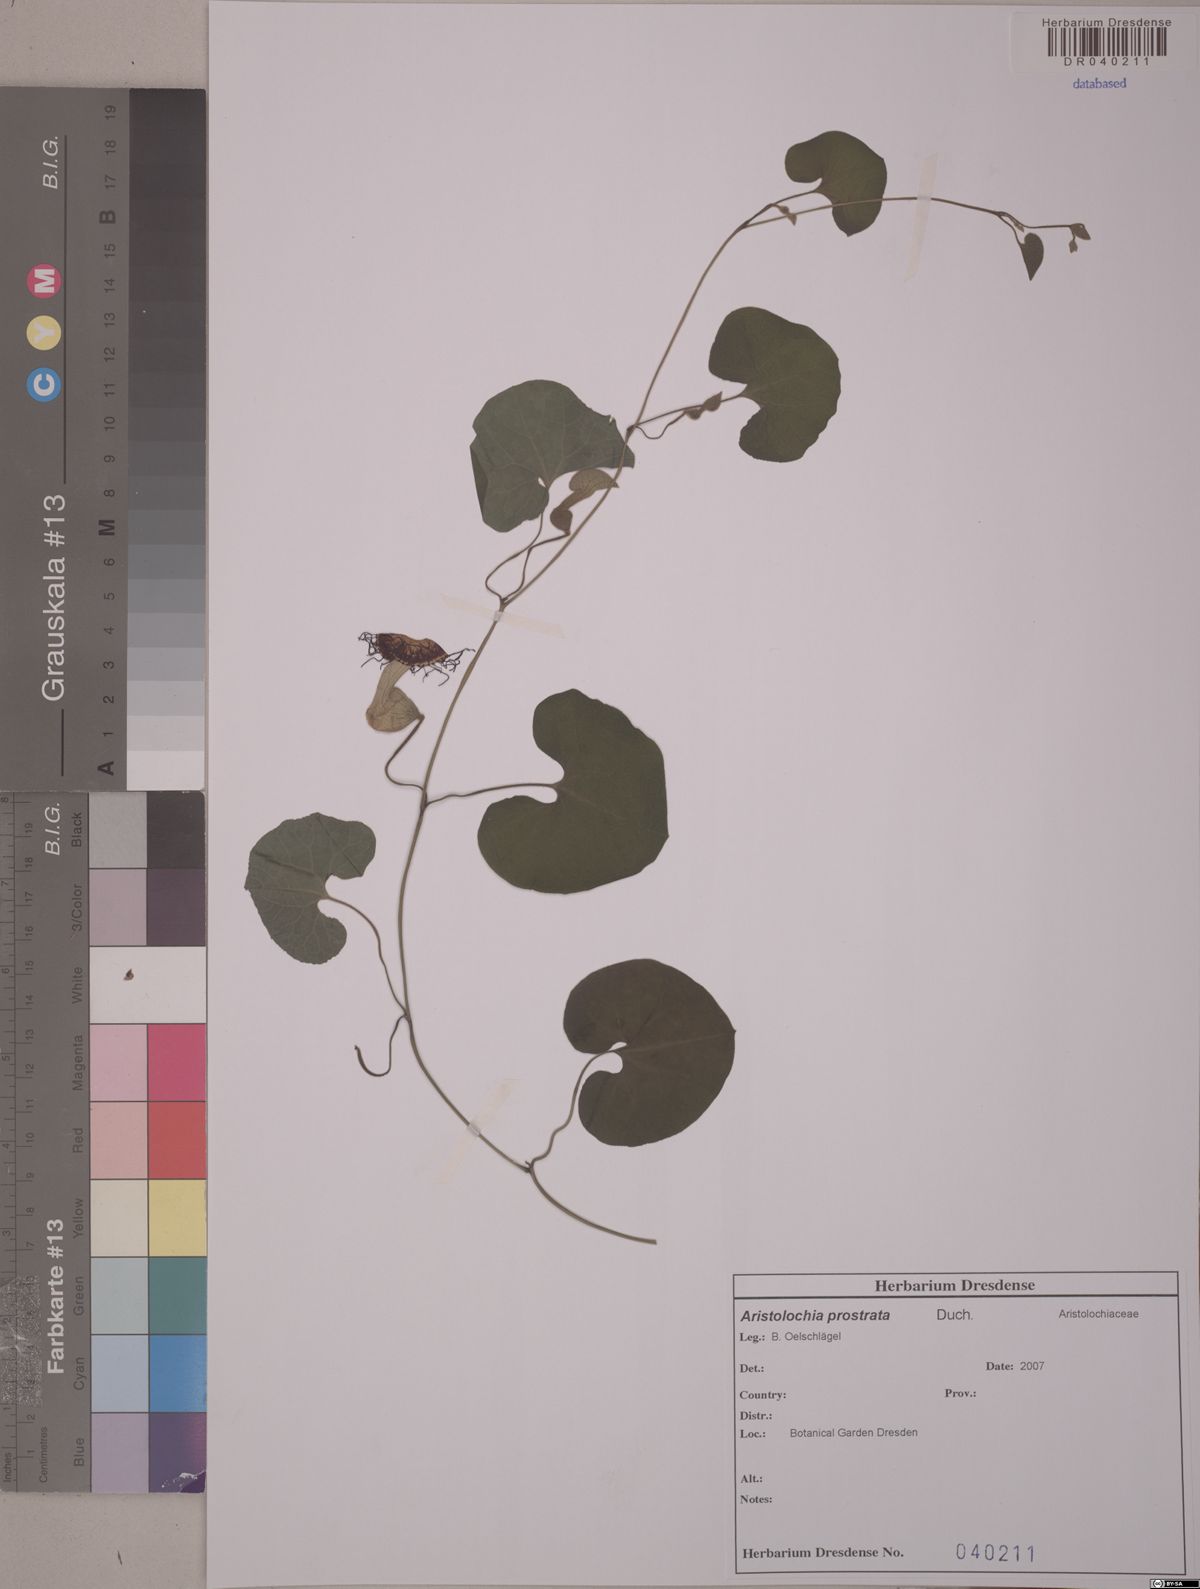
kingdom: Plantae
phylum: Tracheophyta
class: Magnoliopsida
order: Piperales
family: Aristolochiaceae
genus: Aristolochia
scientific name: Aristolochia prostrata
